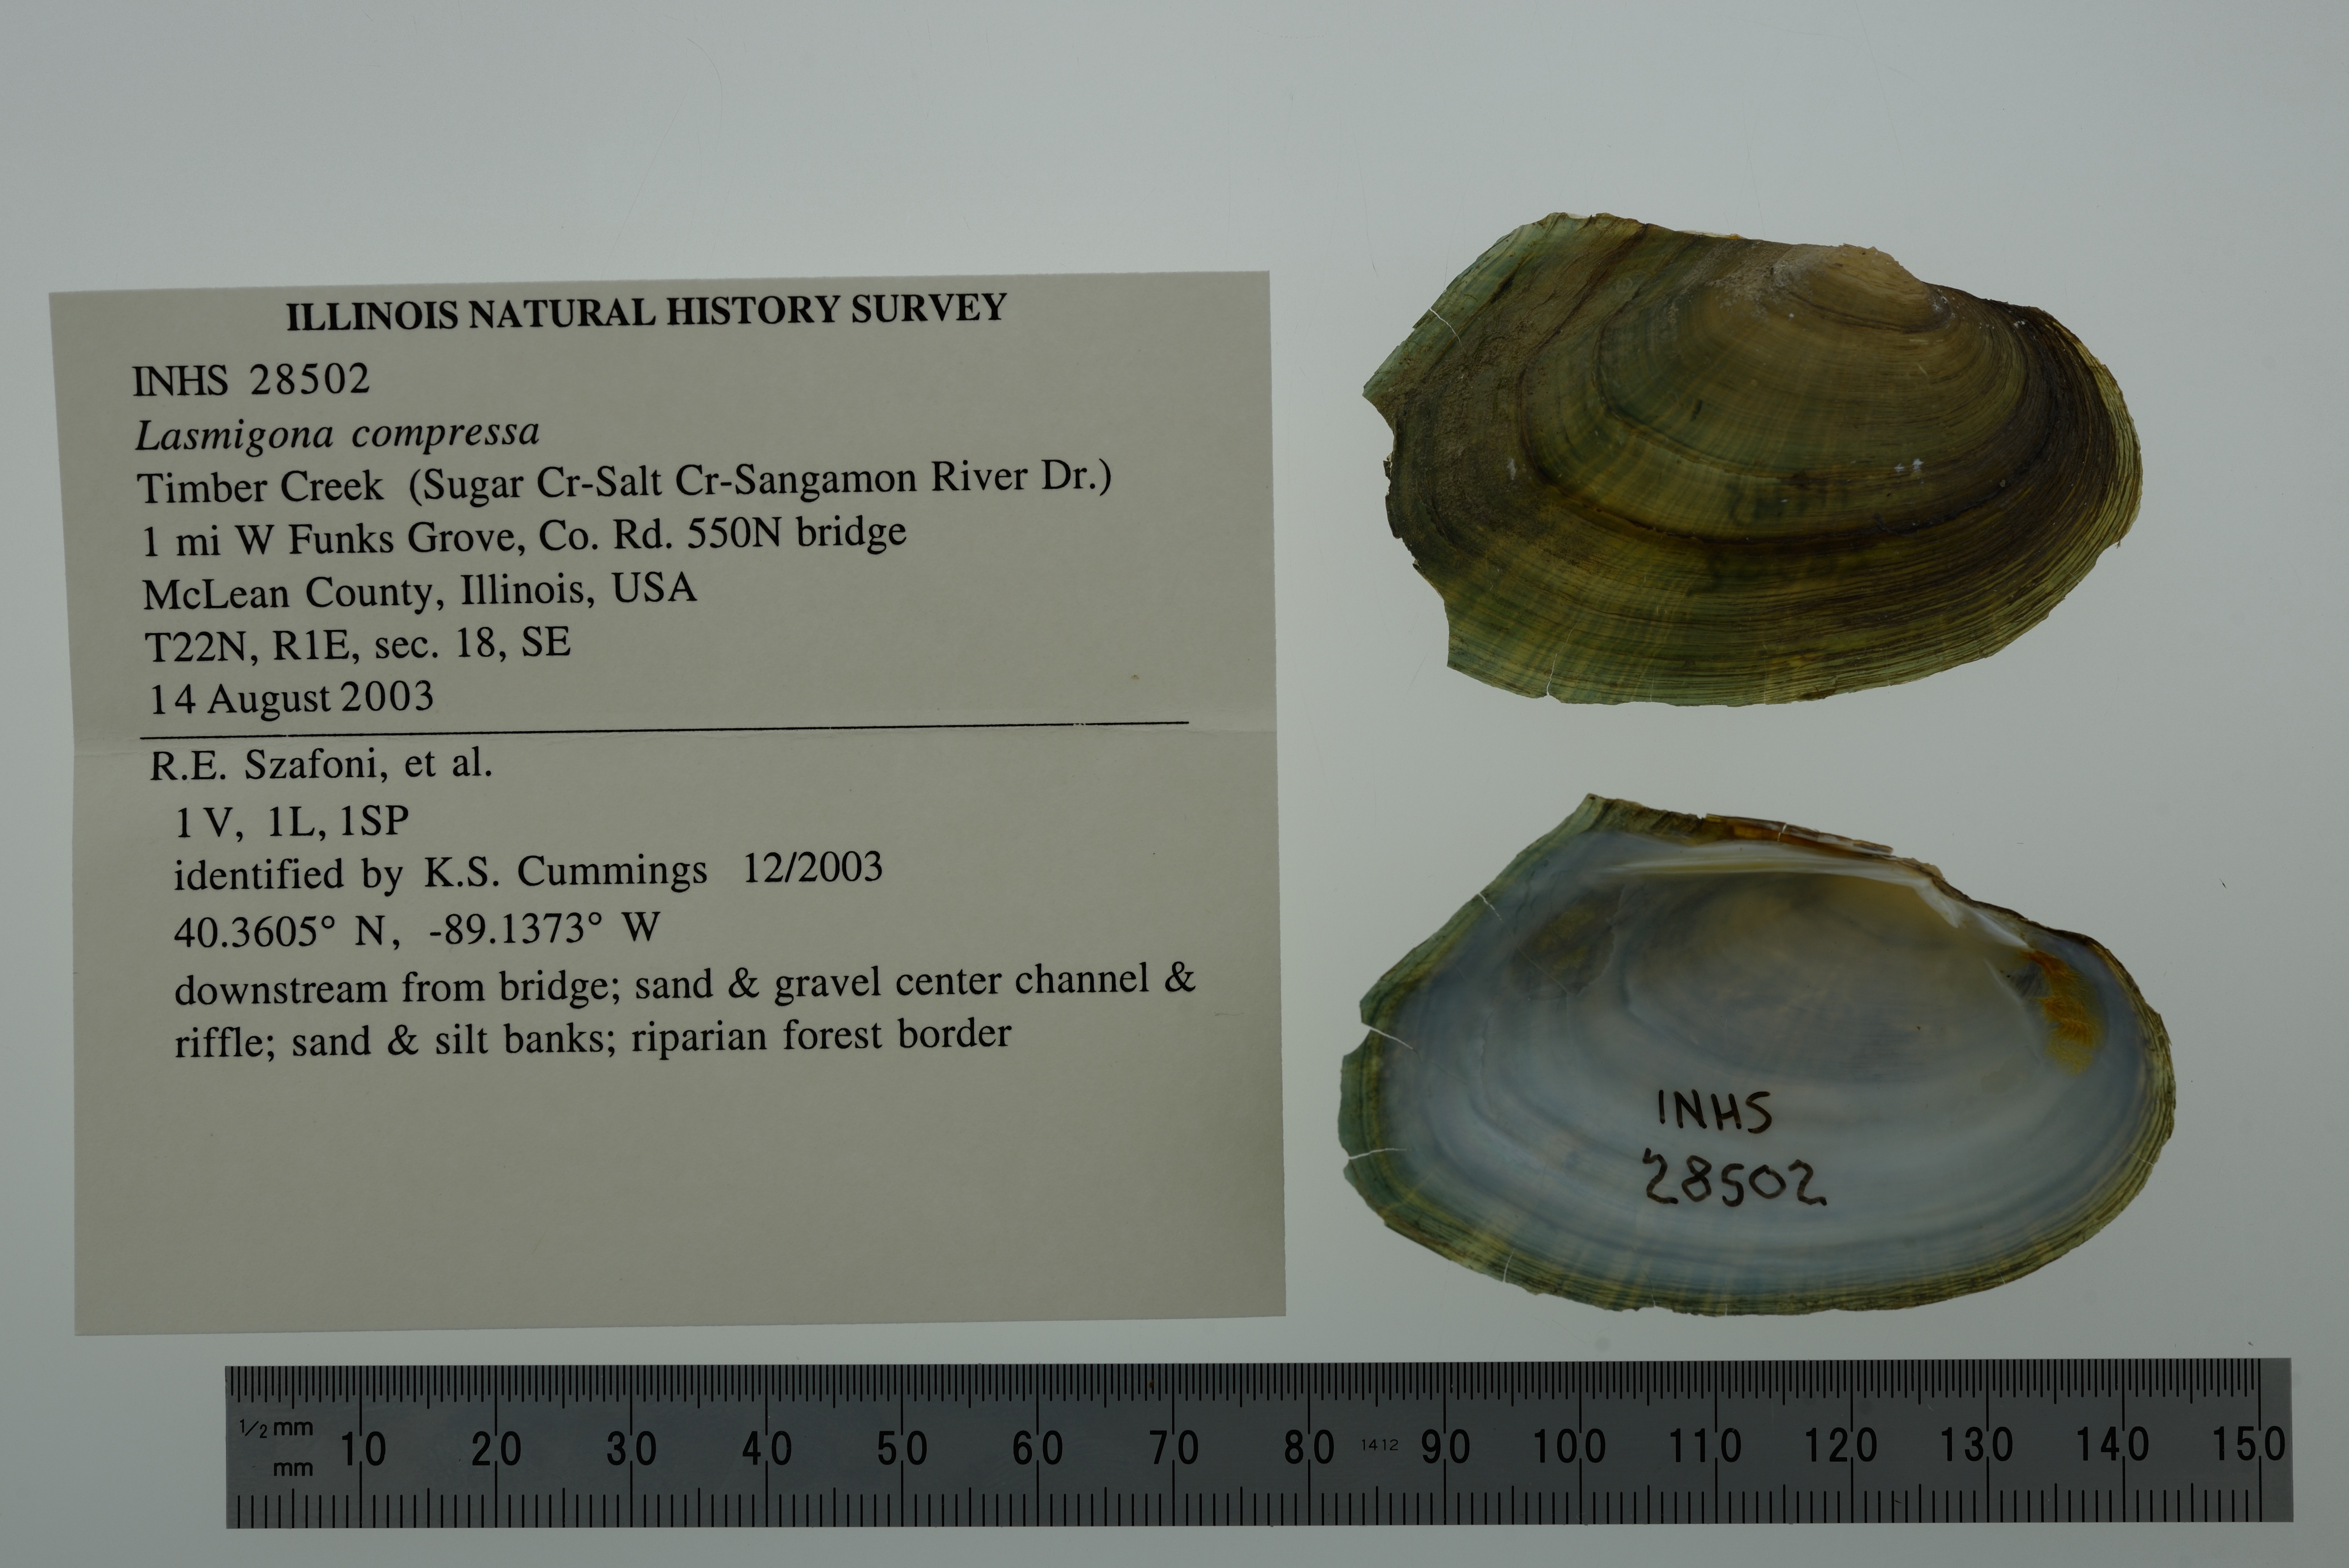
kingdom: Animalia
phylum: Mollusca
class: Bivalvia
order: Unionida
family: Unionidae
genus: Lasmigona
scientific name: Lasmigona compressa
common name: Creek heelsplitter
